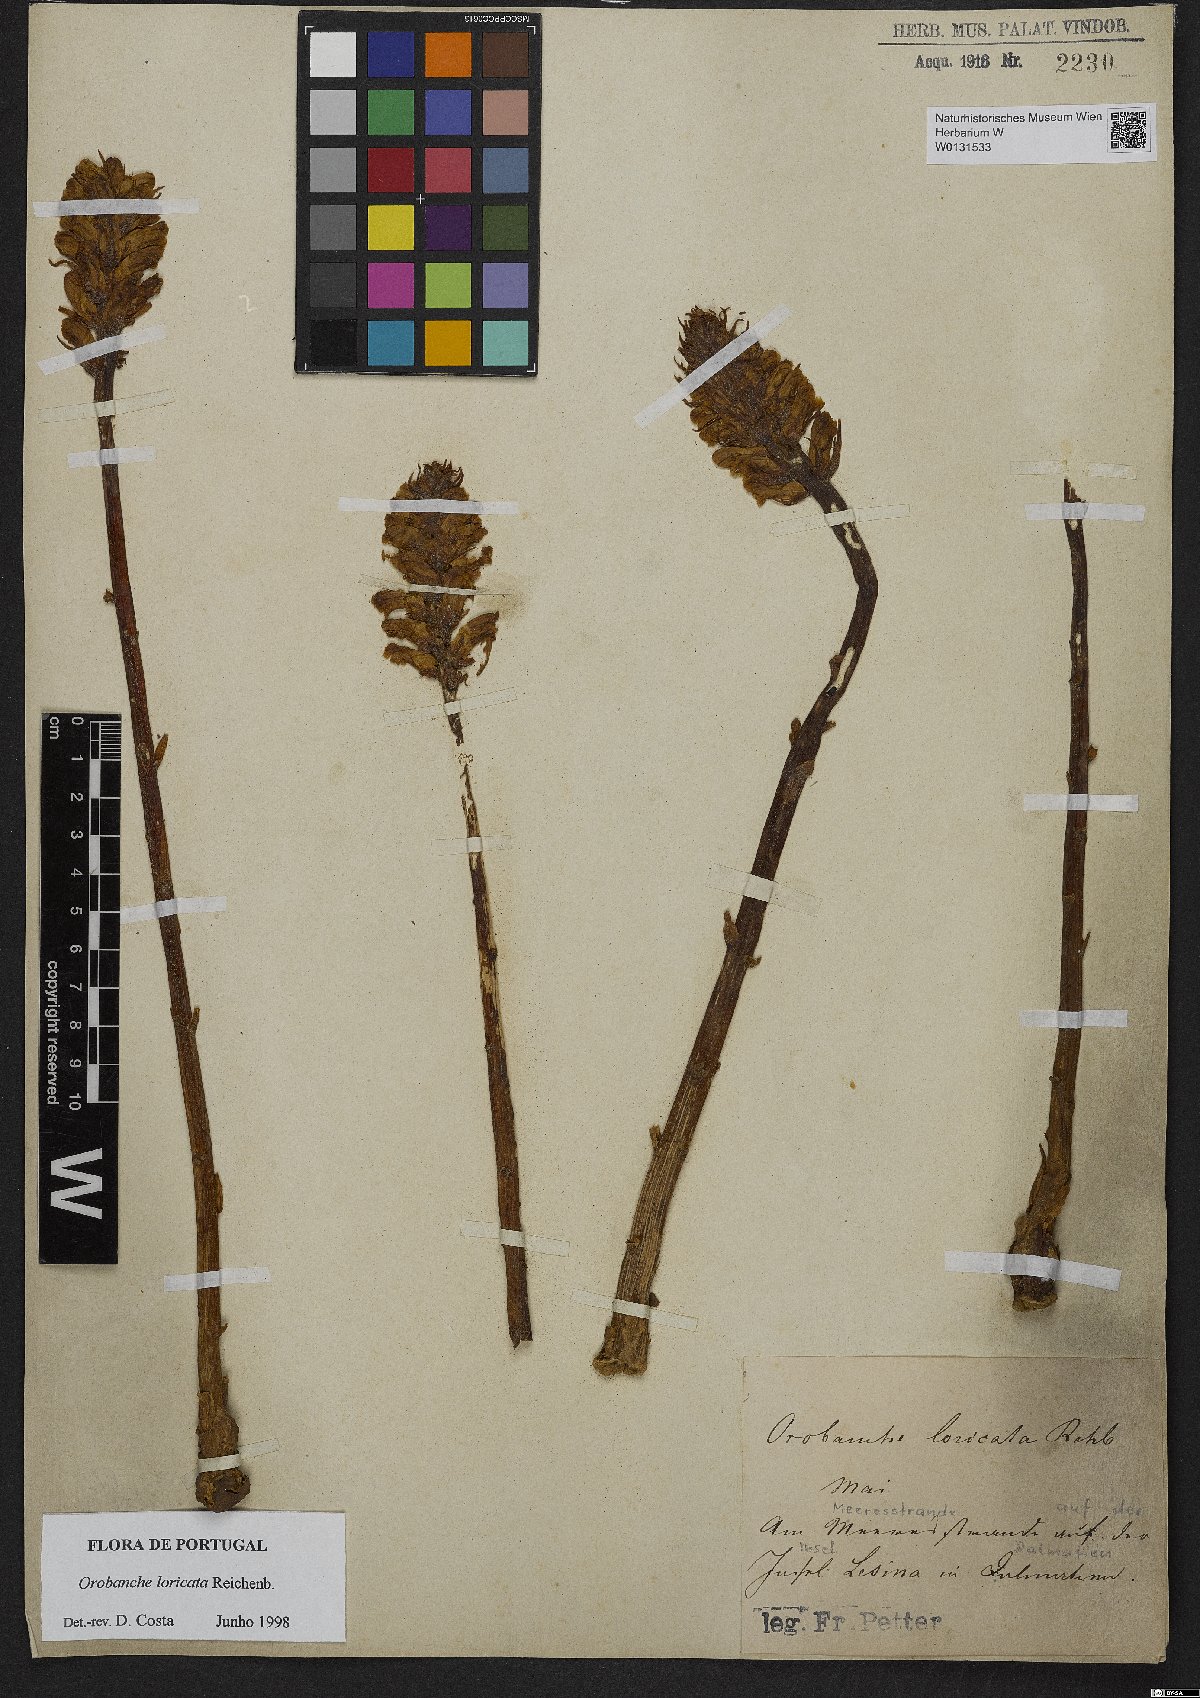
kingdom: Plantae
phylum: Tracheophyta
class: Magnoliopsida
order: Lamiales
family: Orobanchaceae
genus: Orobanche
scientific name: Orobanche artemisiae-campestris
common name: Oxtongue broomrape
